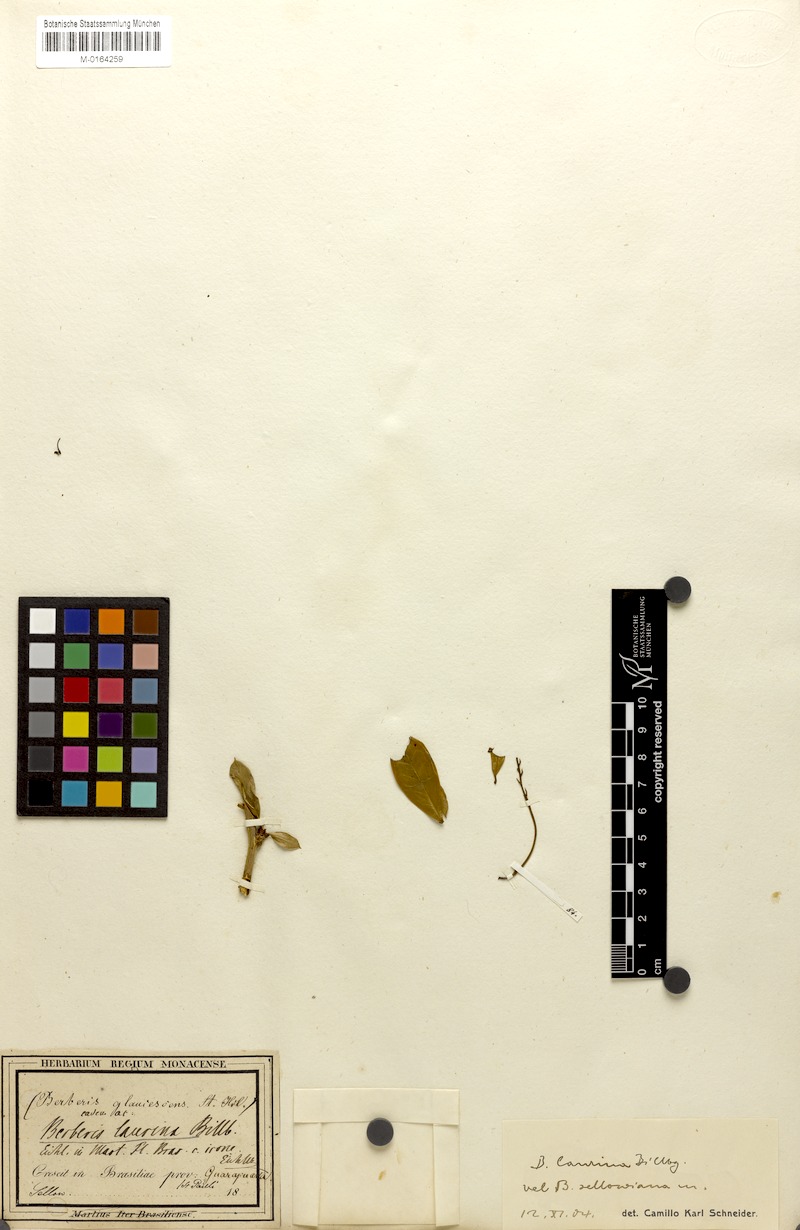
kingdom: Plantae
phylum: Tracheophyta
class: Magnoliopsida
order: Ranunculales
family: Berberidaceae
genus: Berberis
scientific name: Berberis laurina
